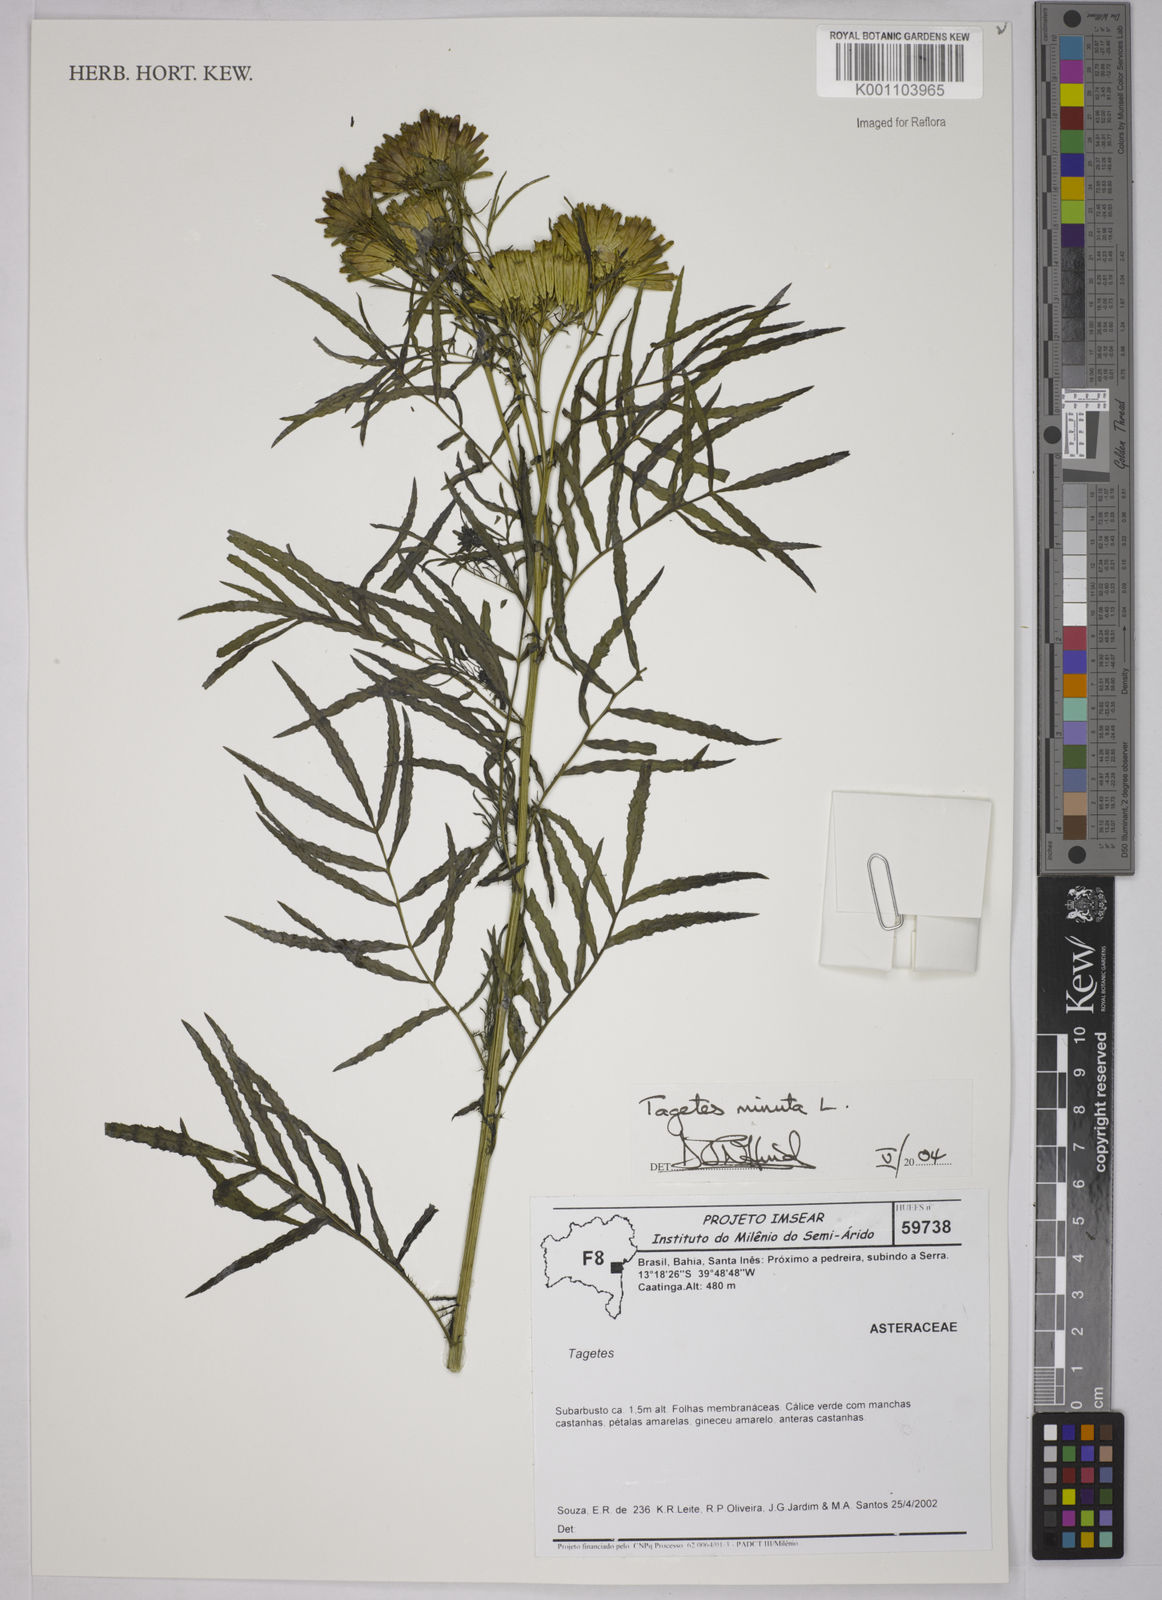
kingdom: Plantae
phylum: Tracheophyta
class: Magnoliopsida
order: Asterales
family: Asteraceae
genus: Tagetes
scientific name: Tagetes minuta
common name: Muster john henry
